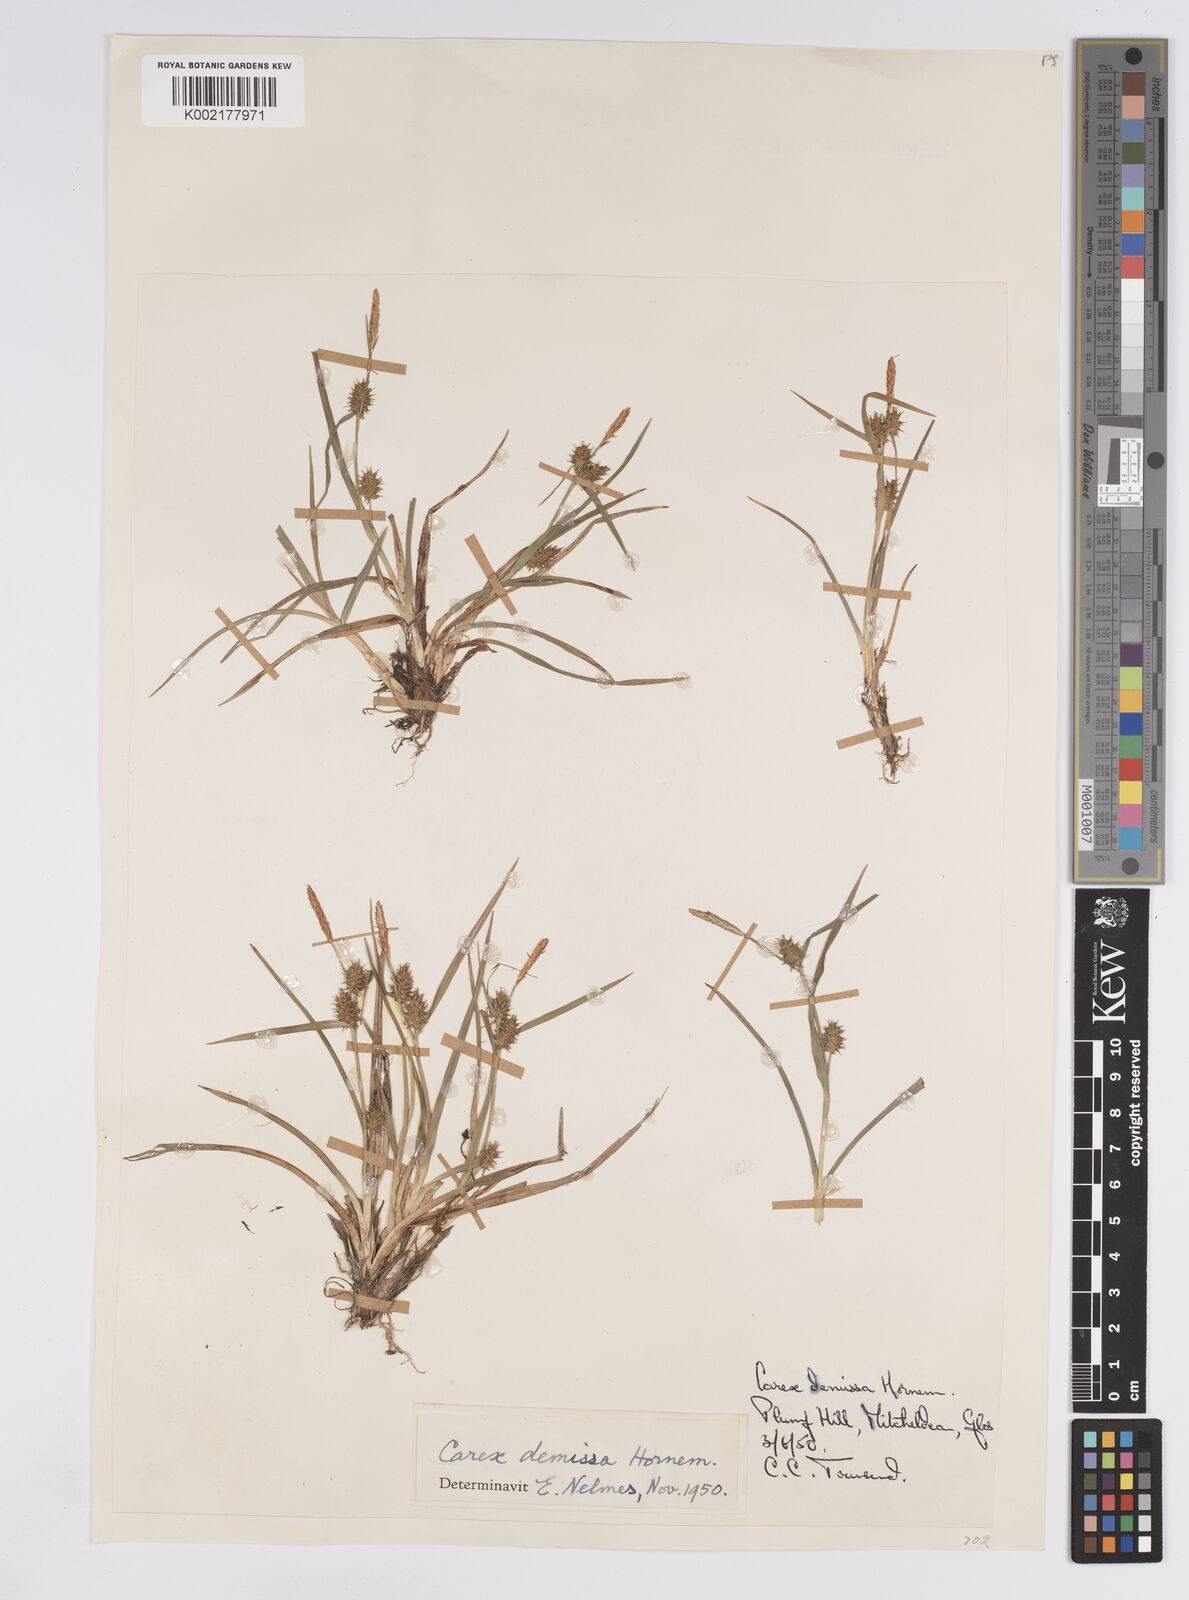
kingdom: Plantae
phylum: Tracheophyta
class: Liliopsida
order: Poales
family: Cyperaceae
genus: Carex
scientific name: Carex demissa
